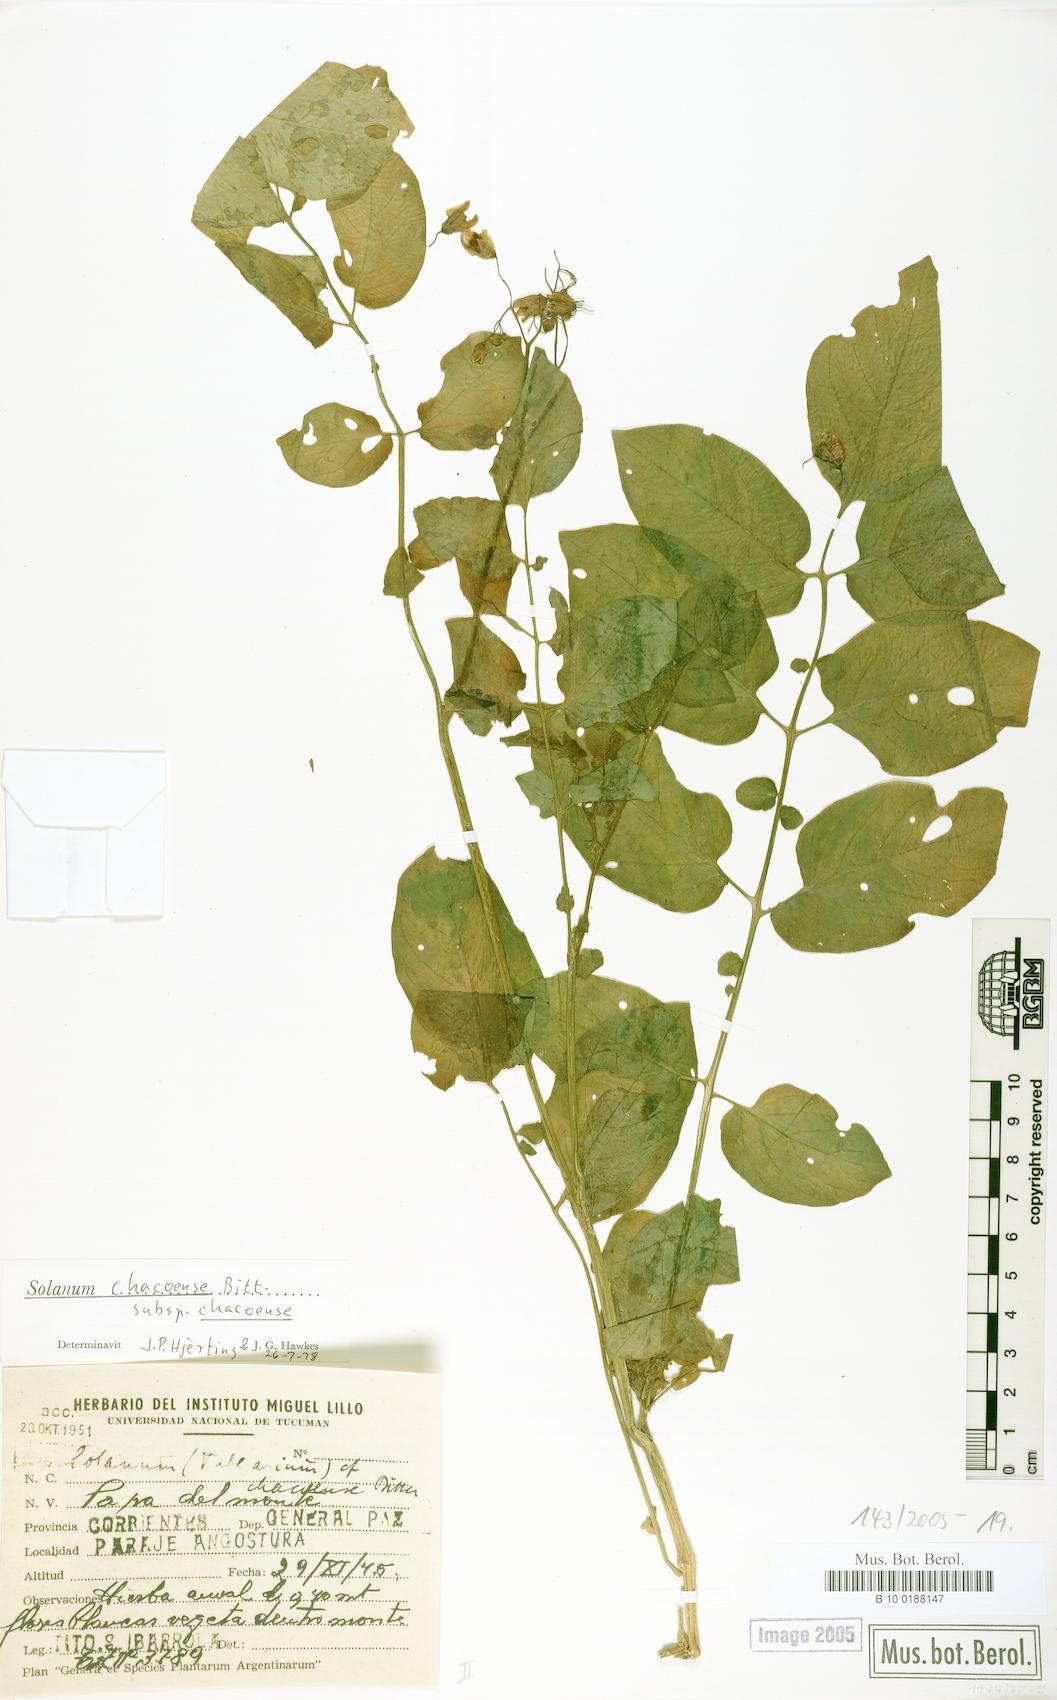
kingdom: Plantae
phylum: Tracheophyta
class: Magnoliopsida
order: Solanales
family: Solanaceae
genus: Solanum
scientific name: Solanum chacoense
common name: Chaco potato
